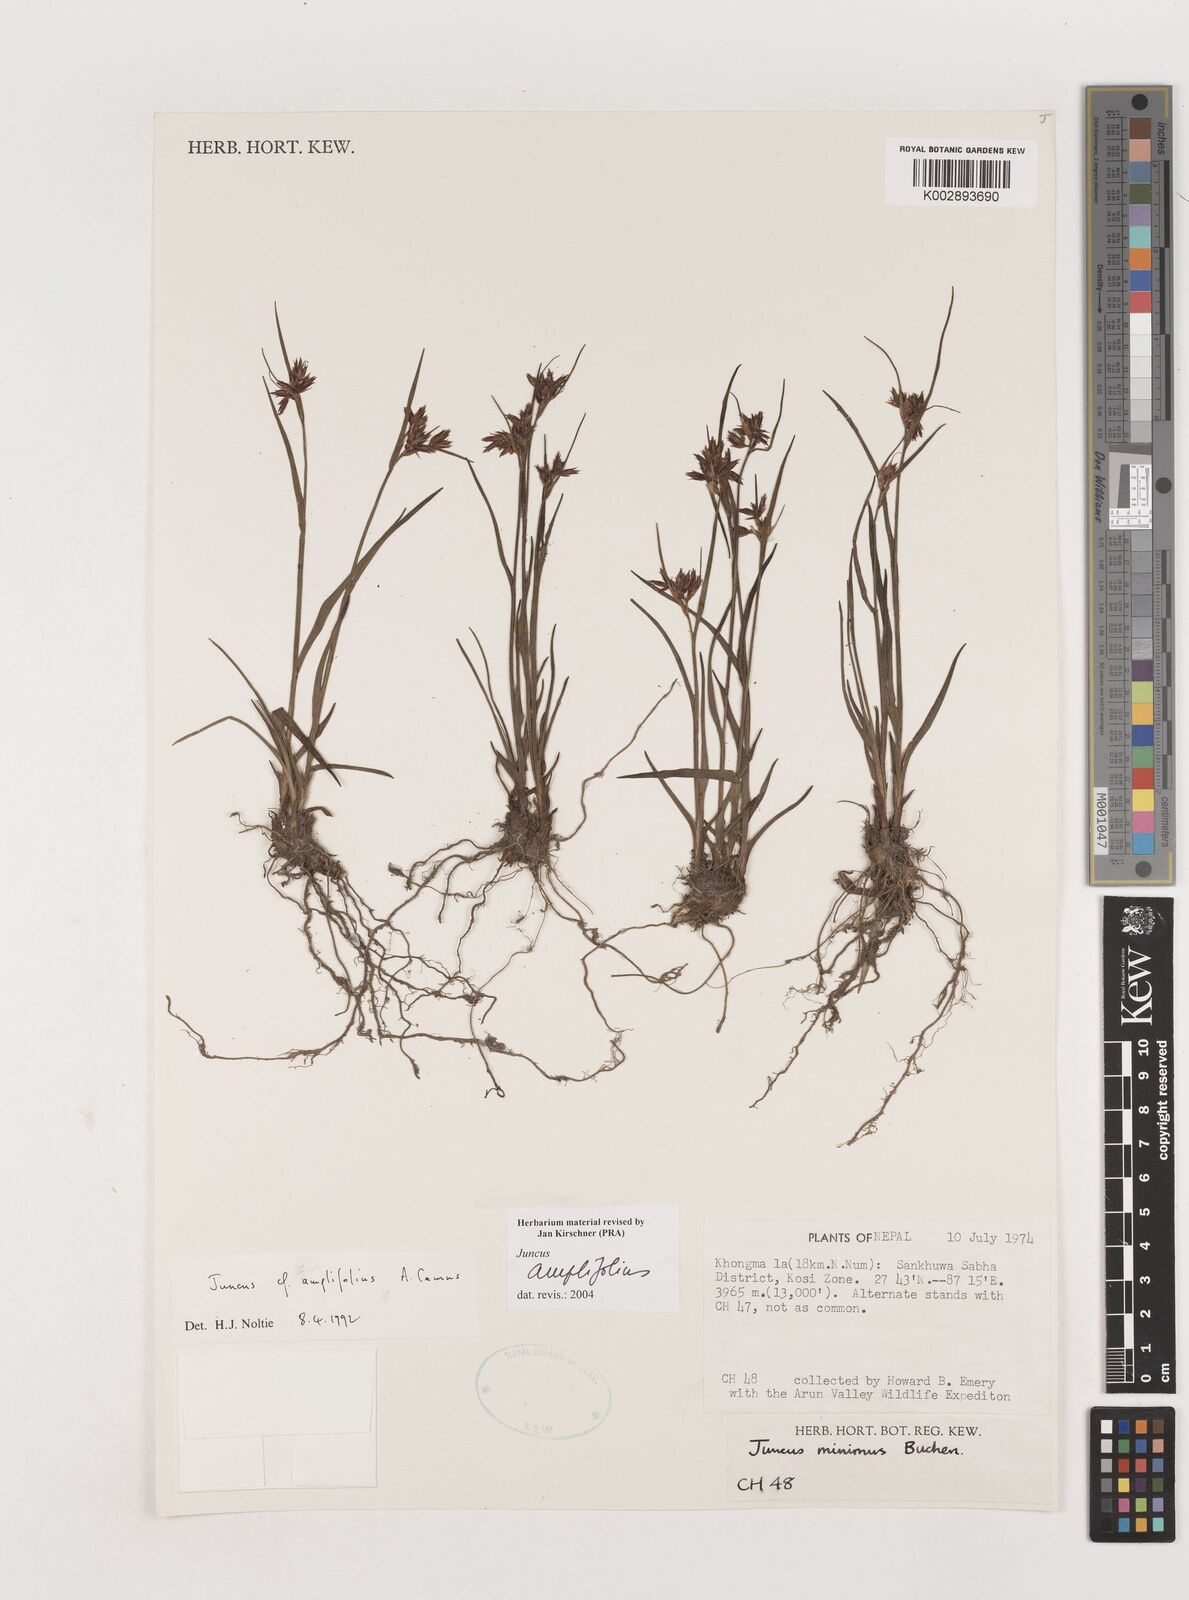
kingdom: Plantae
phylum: Tracheophyta
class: Liliopsida
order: Poales
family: Juncaceae
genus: Juncus
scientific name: Juncus amplifolius
